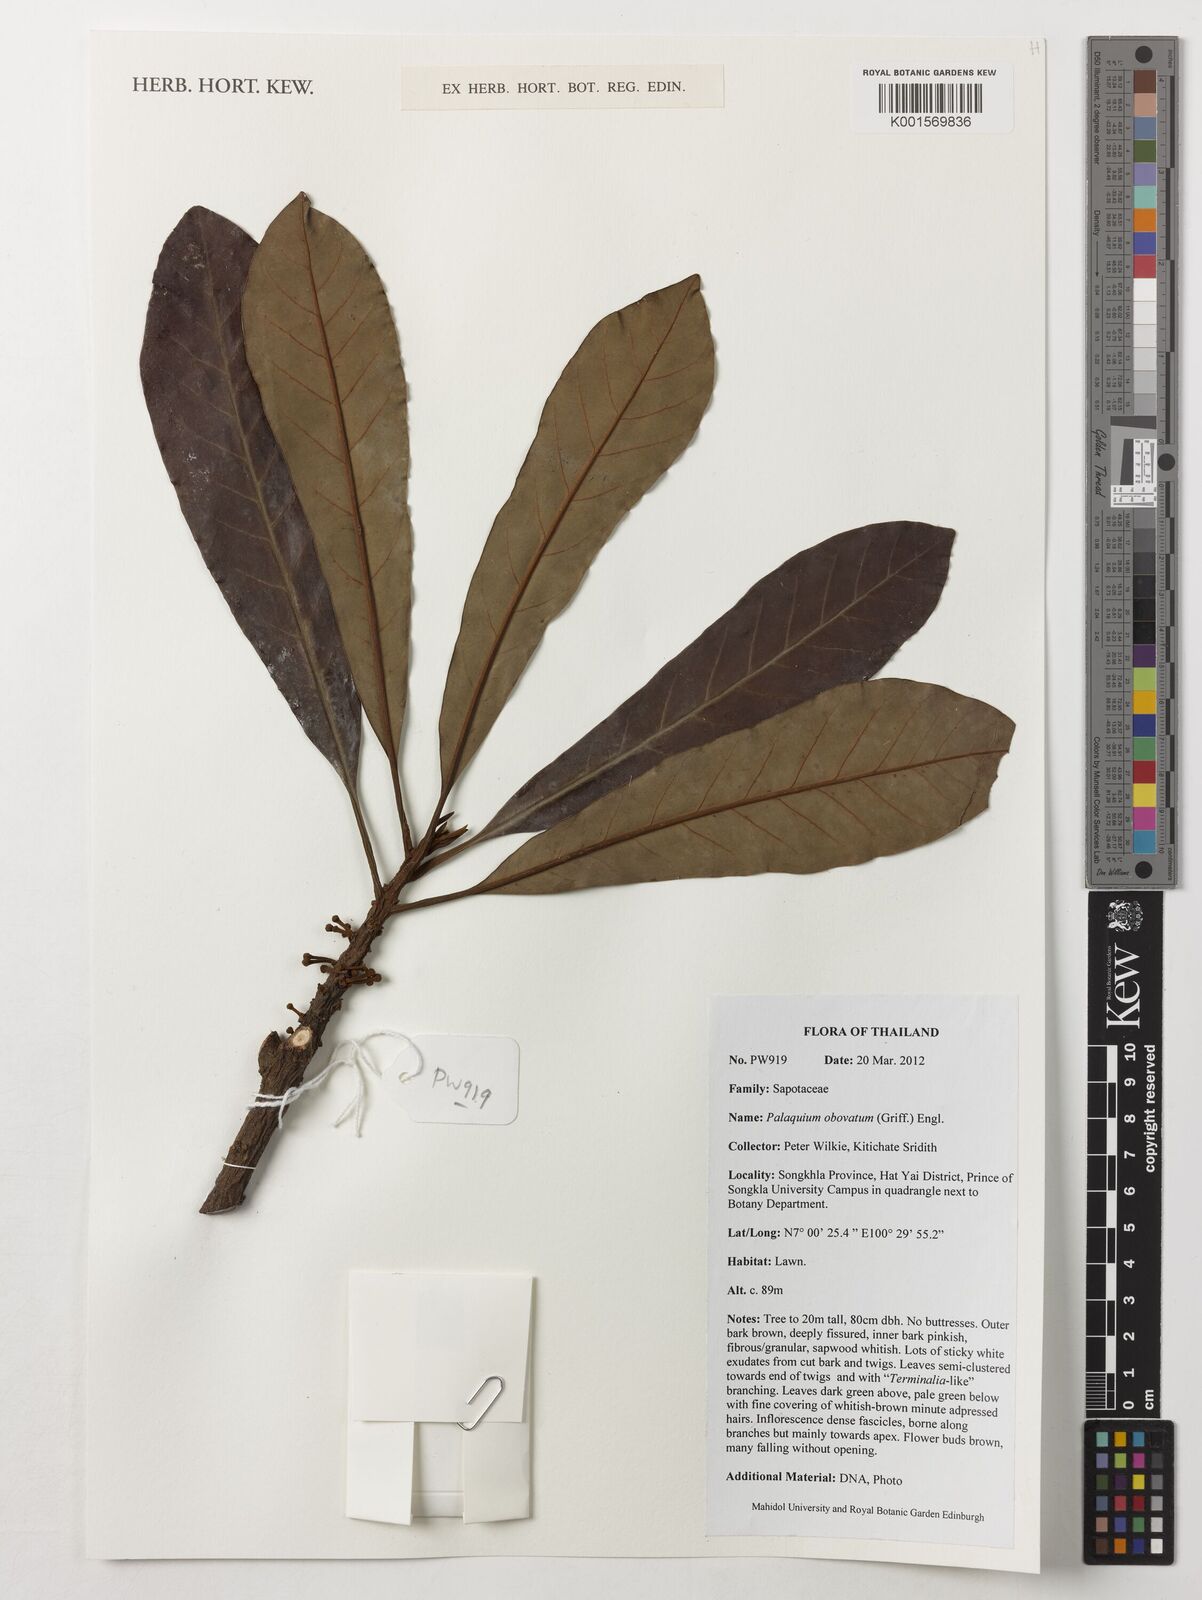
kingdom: Plantae
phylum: Tracheophyta
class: Magnoliopsida
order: Ericales
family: Sapotaceae
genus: Palaquium
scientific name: Palaquium obovatum
